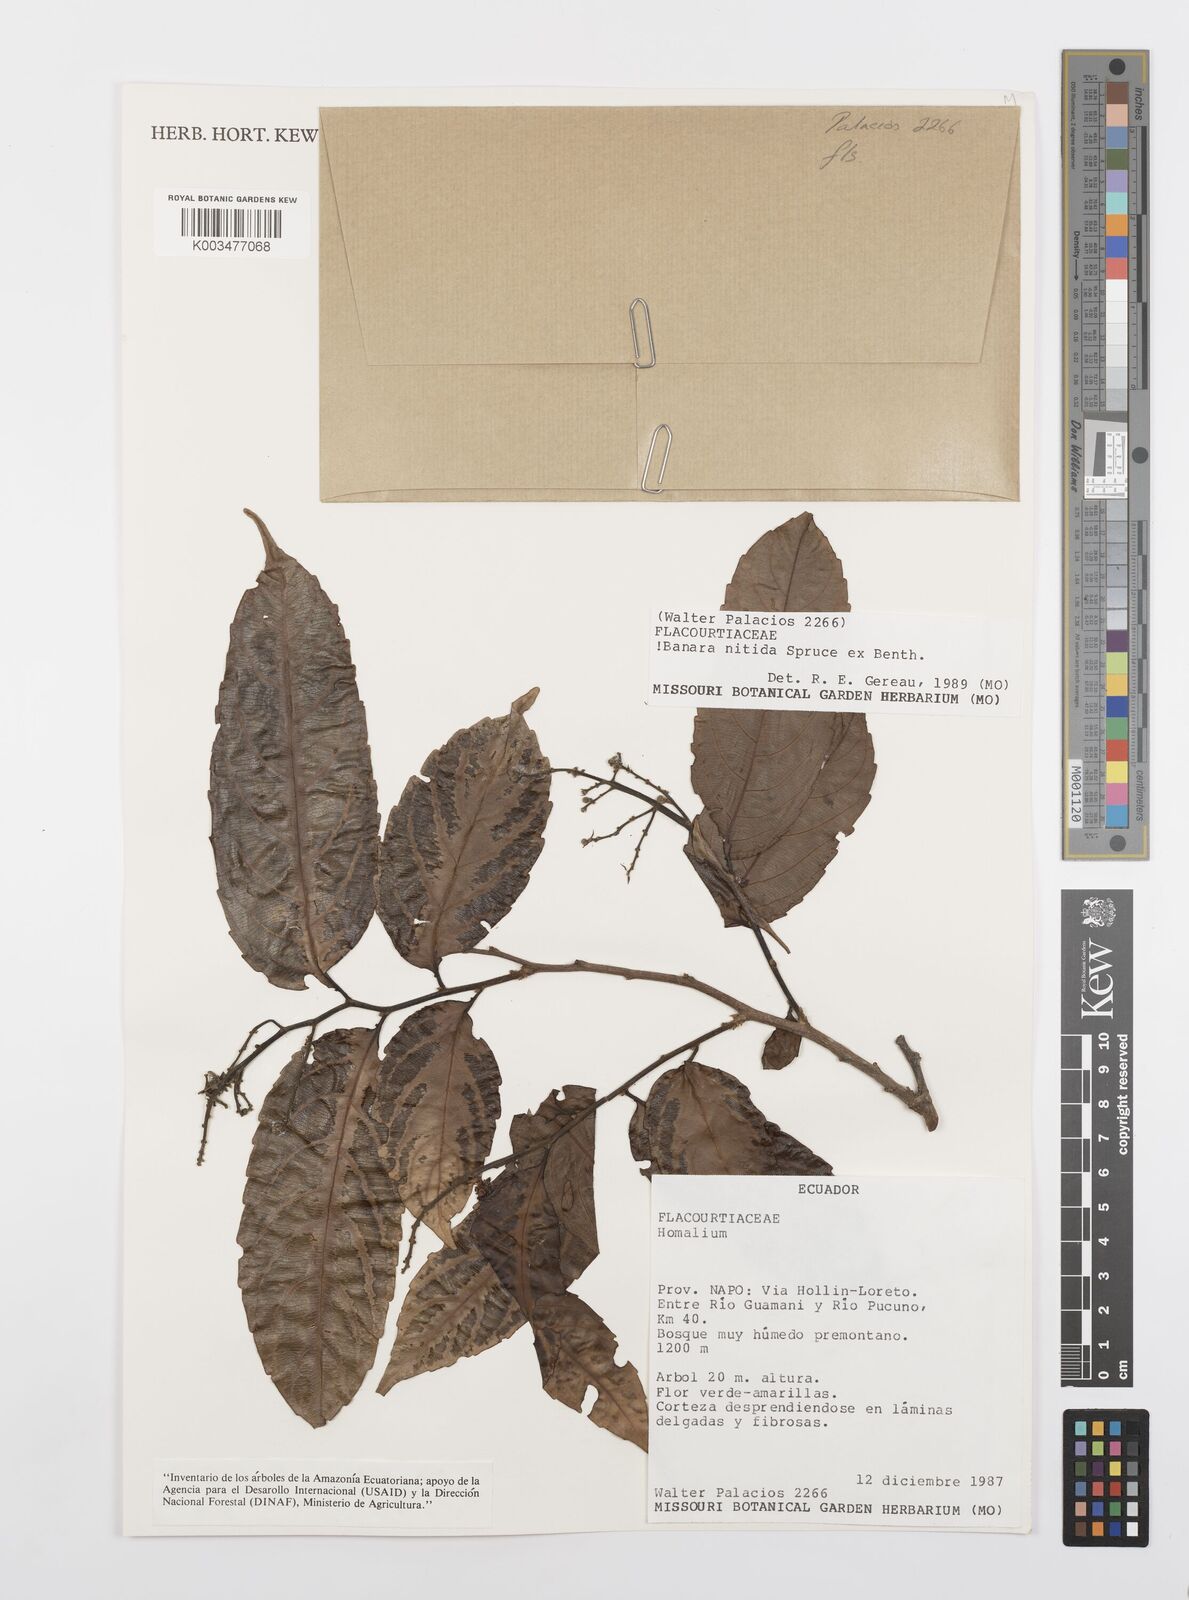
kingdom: Plantae
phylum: Tracheophyta
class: Magnoliopsida
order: Malpighiales
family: Salicaceae
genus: Banara
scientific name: Banara nitida
